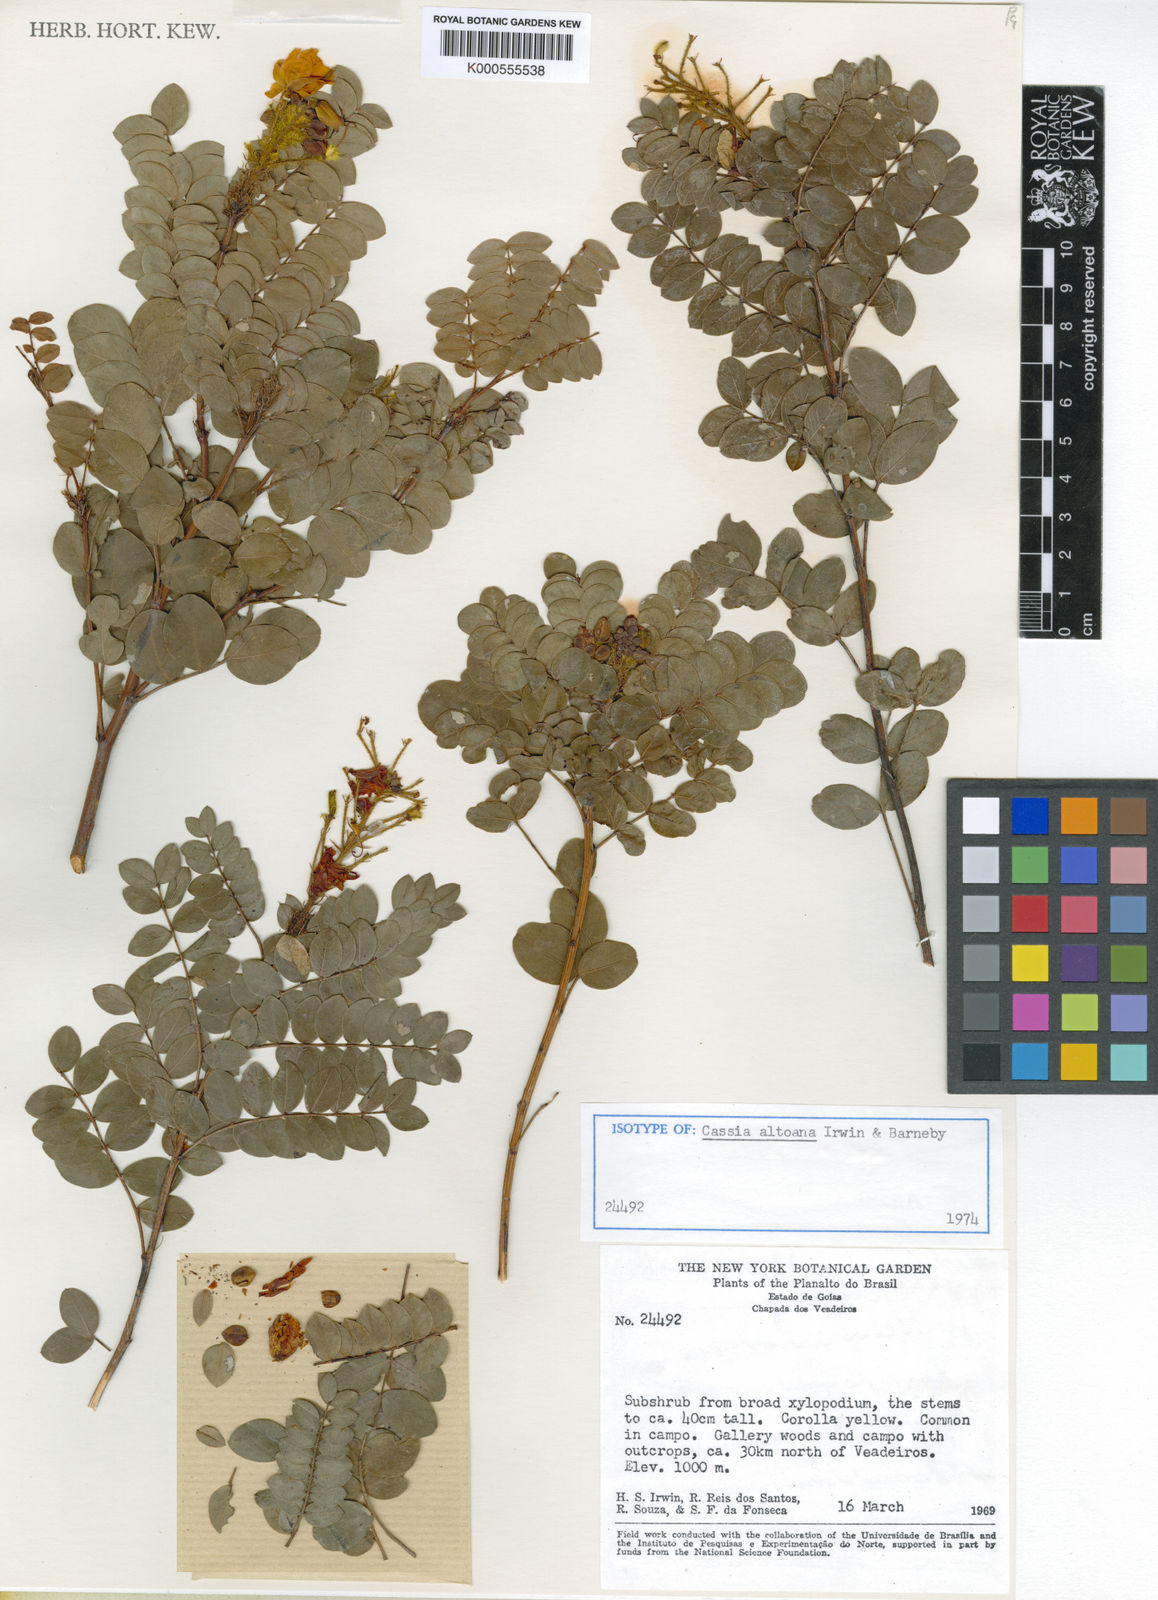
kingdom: Plantae
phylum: Tracheophyta
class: Magnoliopsida
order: Fabales
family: Fabaceae
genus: Chamaecrista
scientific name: Chamaecrista altoana
